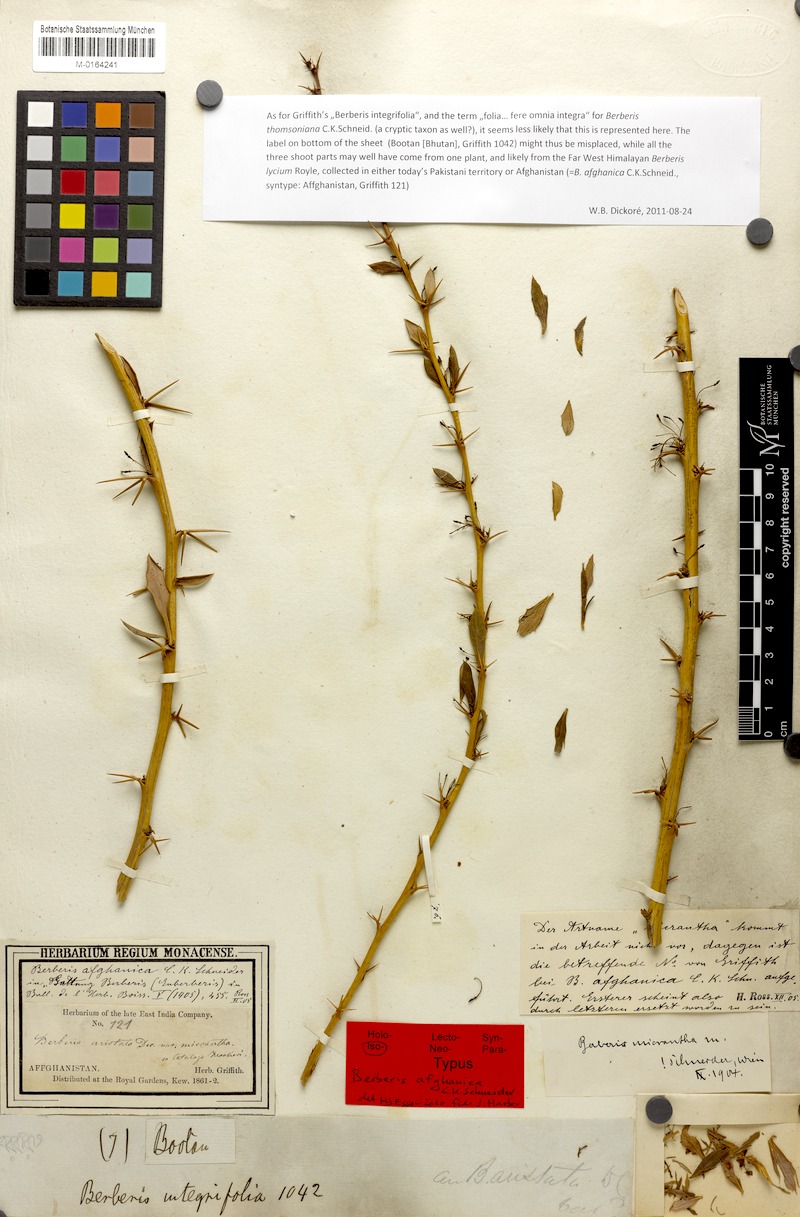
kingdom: Plantae
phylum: Tracheophyta
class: Magnoliopsida
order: Ranunculales
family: Berberidaceae
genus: Berberis
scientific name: Berberis lycium
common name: Boxthorn barberry
